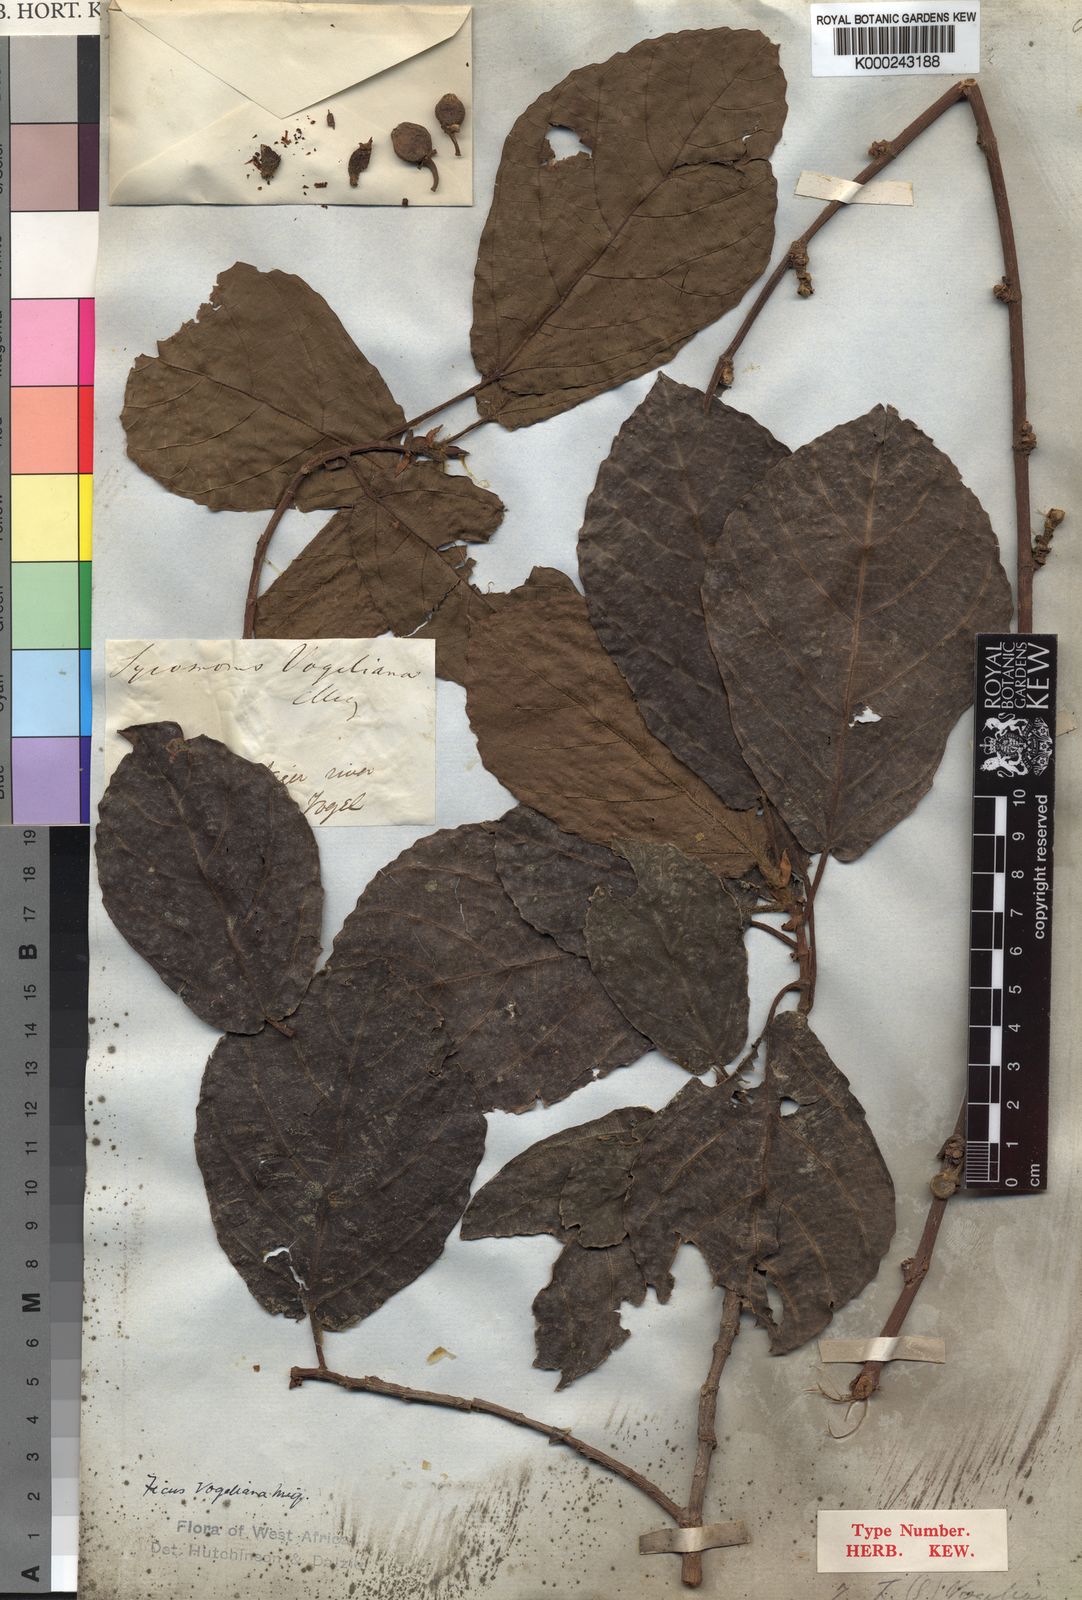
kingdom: Plantae
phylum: Tracheophyta
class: Magnoliopsida
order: Rosales
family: Moraceae
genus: Ficus
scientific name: Ficus vogeliana
